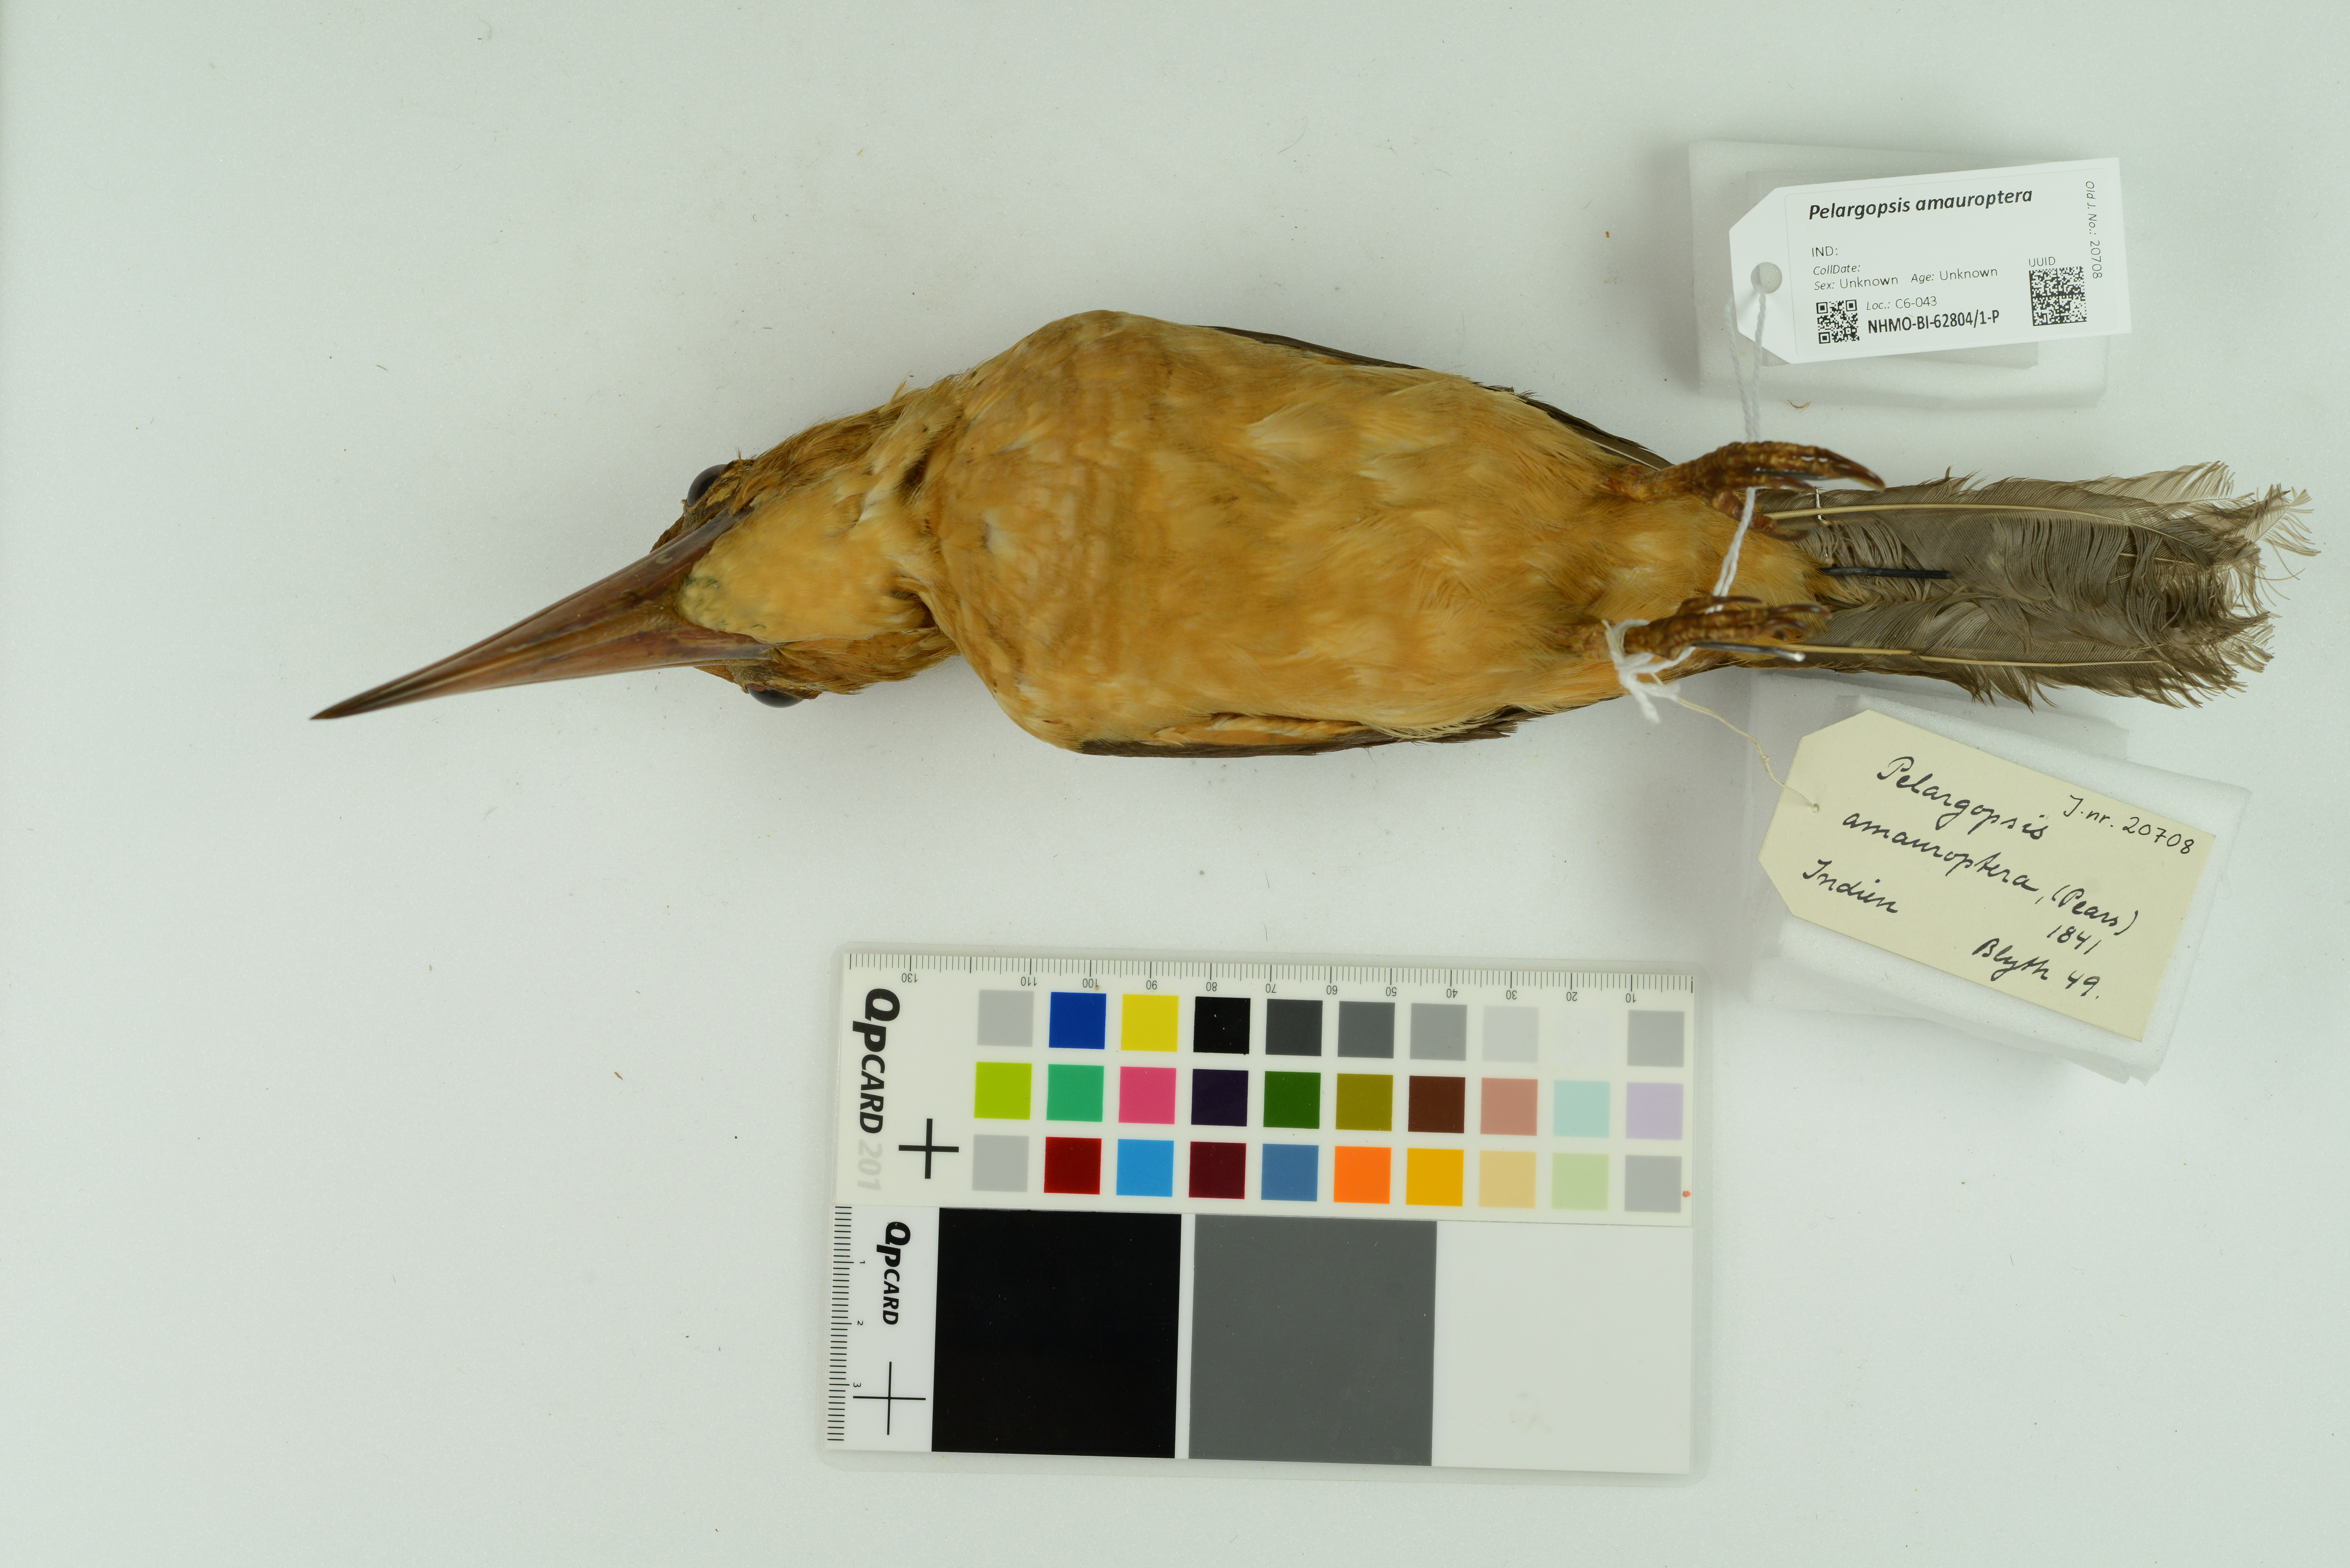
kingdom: Animalia
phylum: Chordata
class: Aves
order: Coraciiformes
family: Alcedinidae
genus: Pelargopsis
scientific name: Pelargopsis amauroptera
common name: Brown-winged kingfisher
